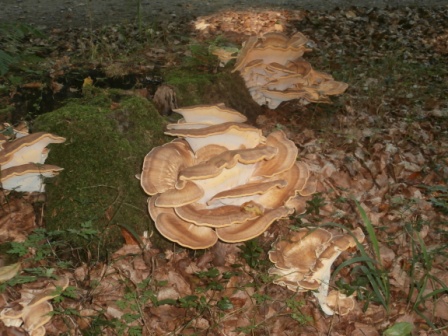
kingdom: Fungi
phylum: Basidiomycota
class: Agaricomycetes
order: Polyporales
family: Meripilaceae
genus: Meripilus
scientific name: Meripilus giganteus
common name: kæmpeporesvamp
